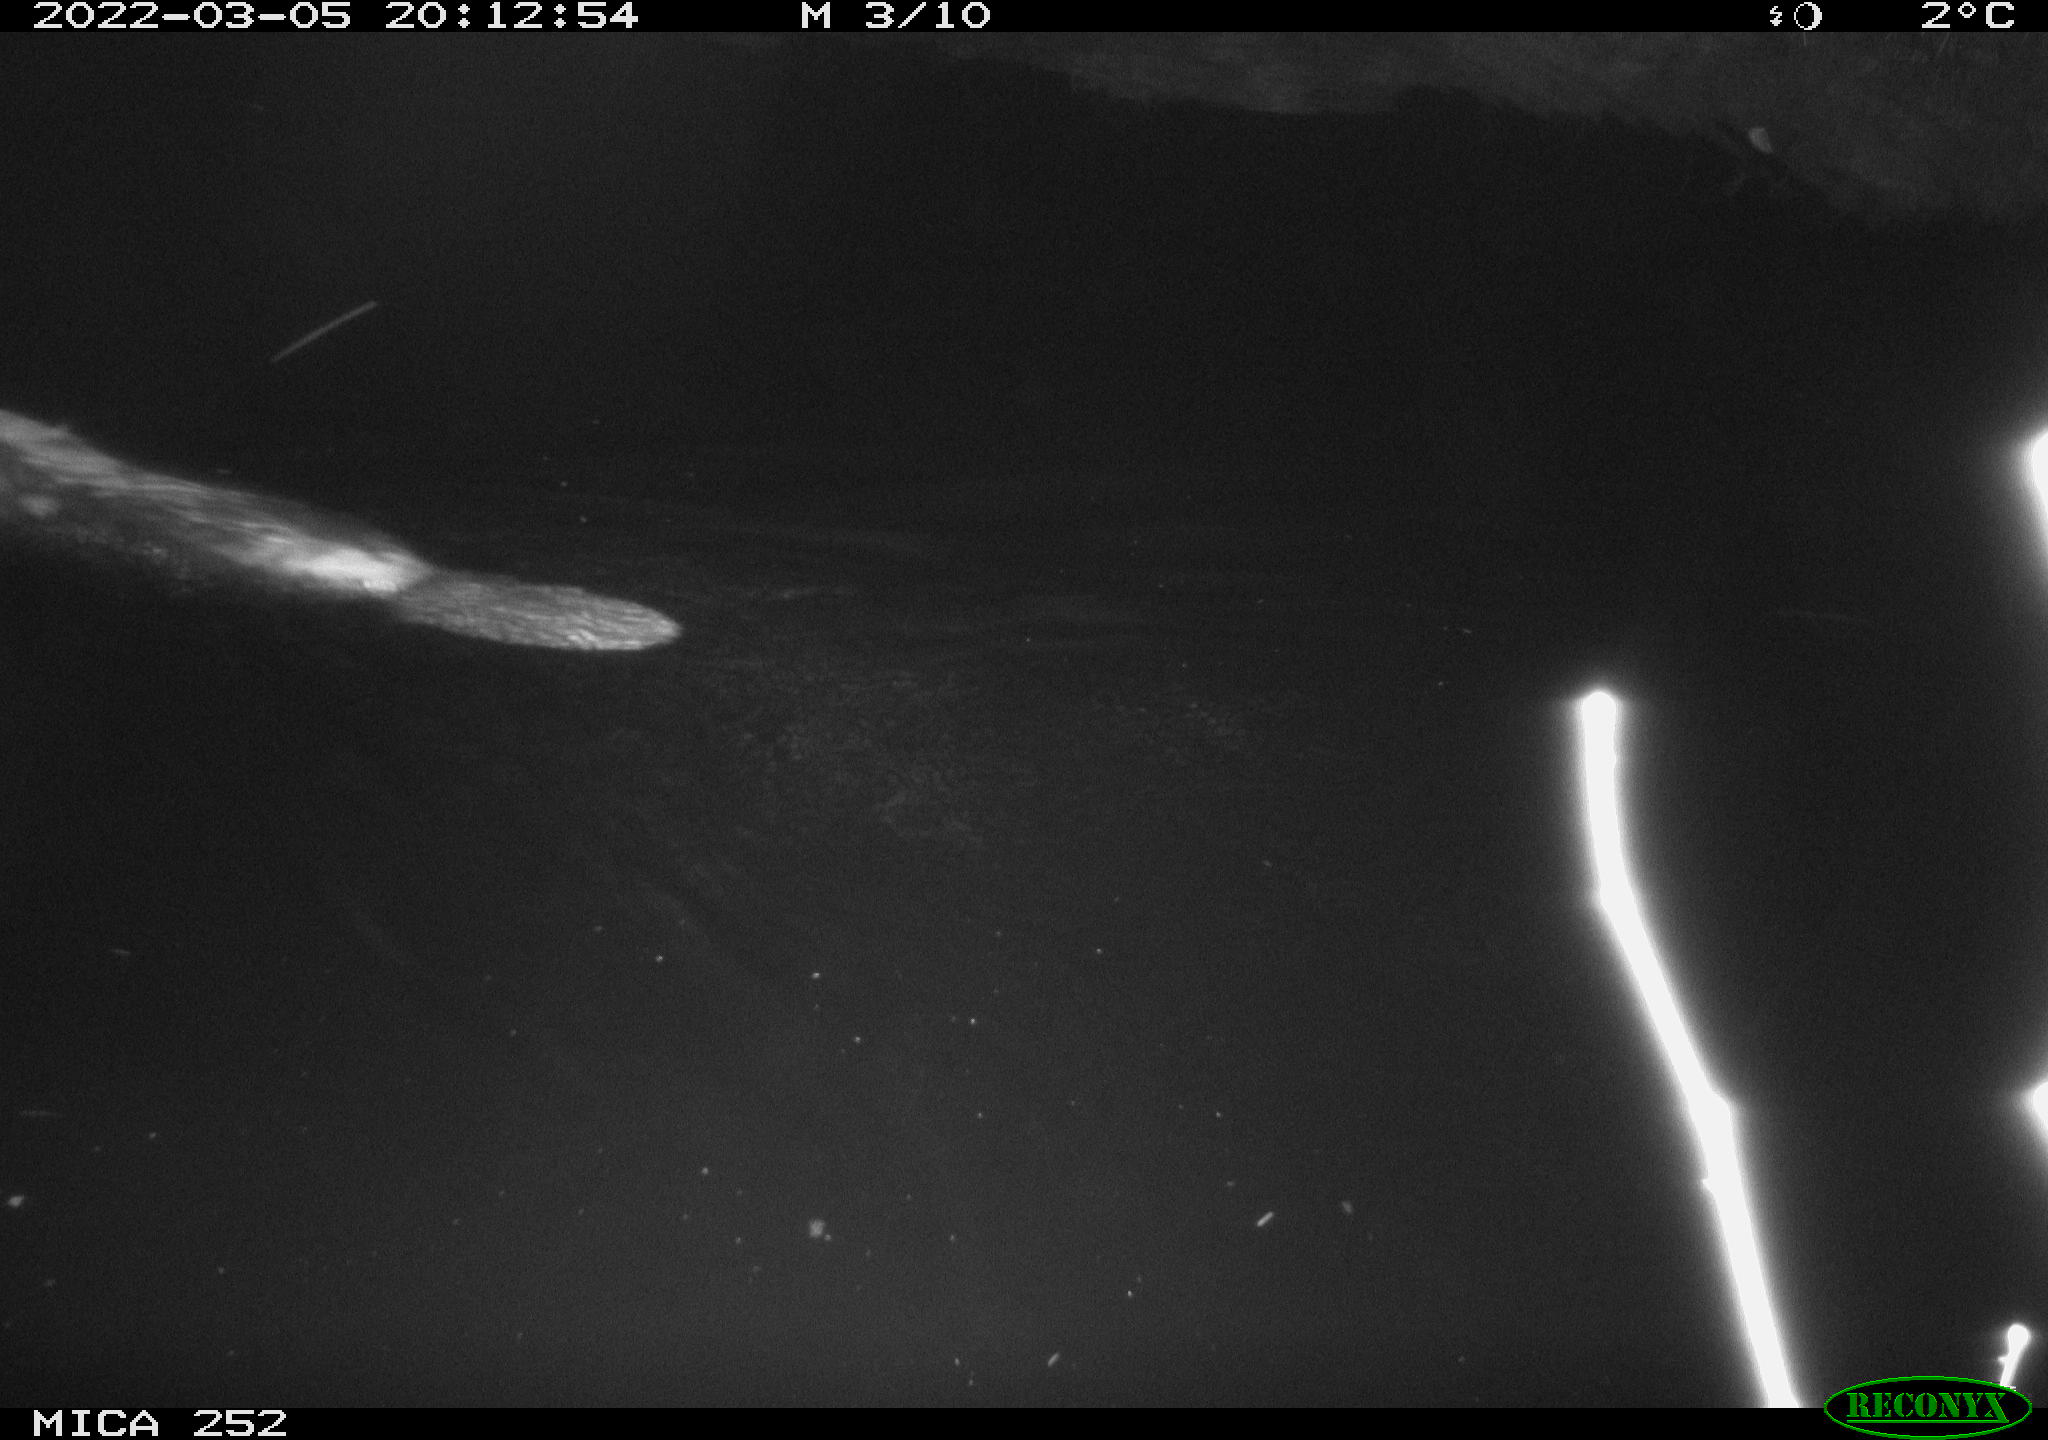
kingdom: Animalia
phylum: Chordata
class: Mammalia
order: Rodentia
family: Castoridae
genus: Castor
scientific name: Castor fiber
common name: Eurasian beaver
